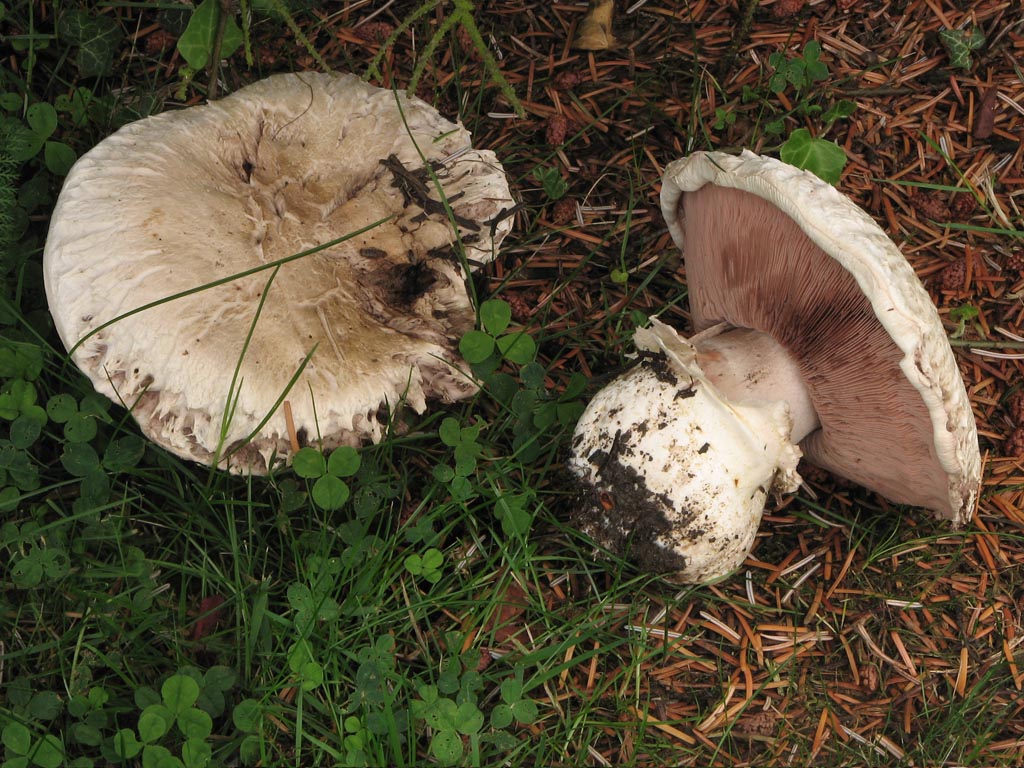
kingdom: Fungi
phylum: Basidiomycota
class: Agaricomycetes
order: Agaricales
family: Agaricaceae
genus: Agaricus
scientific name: Agaricus bernardii
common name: strandengs-champignon
